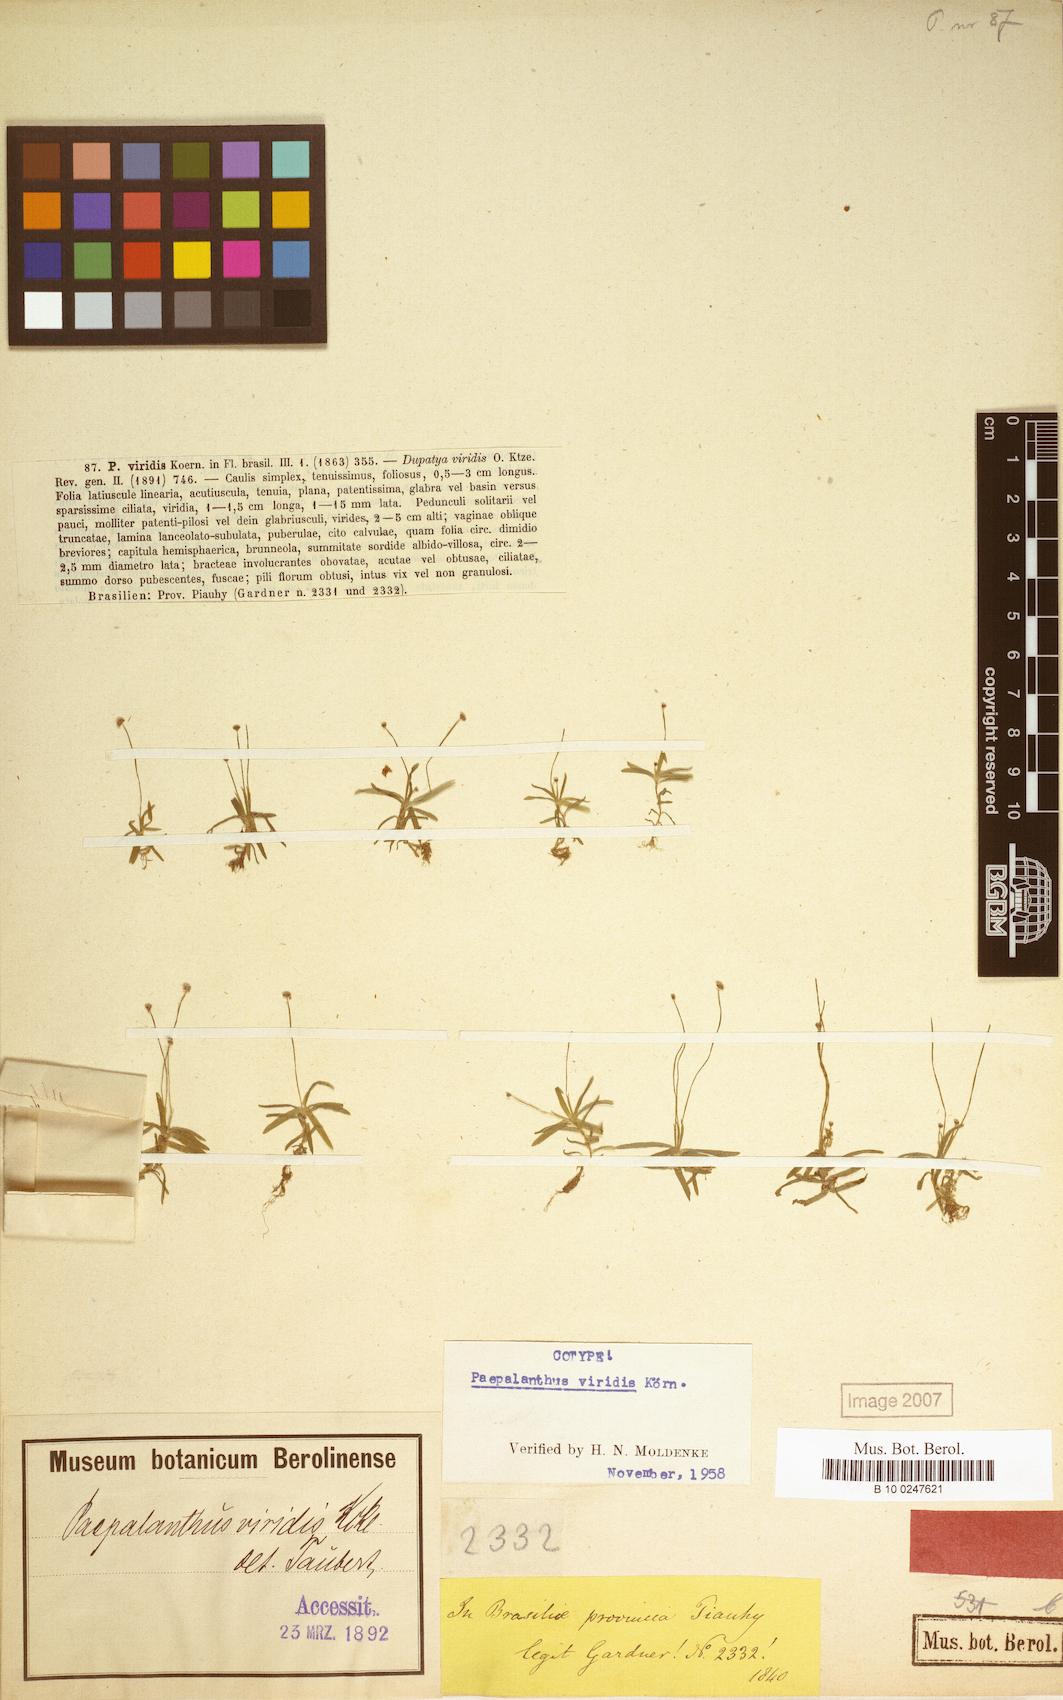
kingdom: Plantae
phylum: Tracheophyta
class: Liliopsida
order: Poales
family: Eriocaulaceae
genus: Paepalanthus
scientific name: Paepalanthus lamarckii
